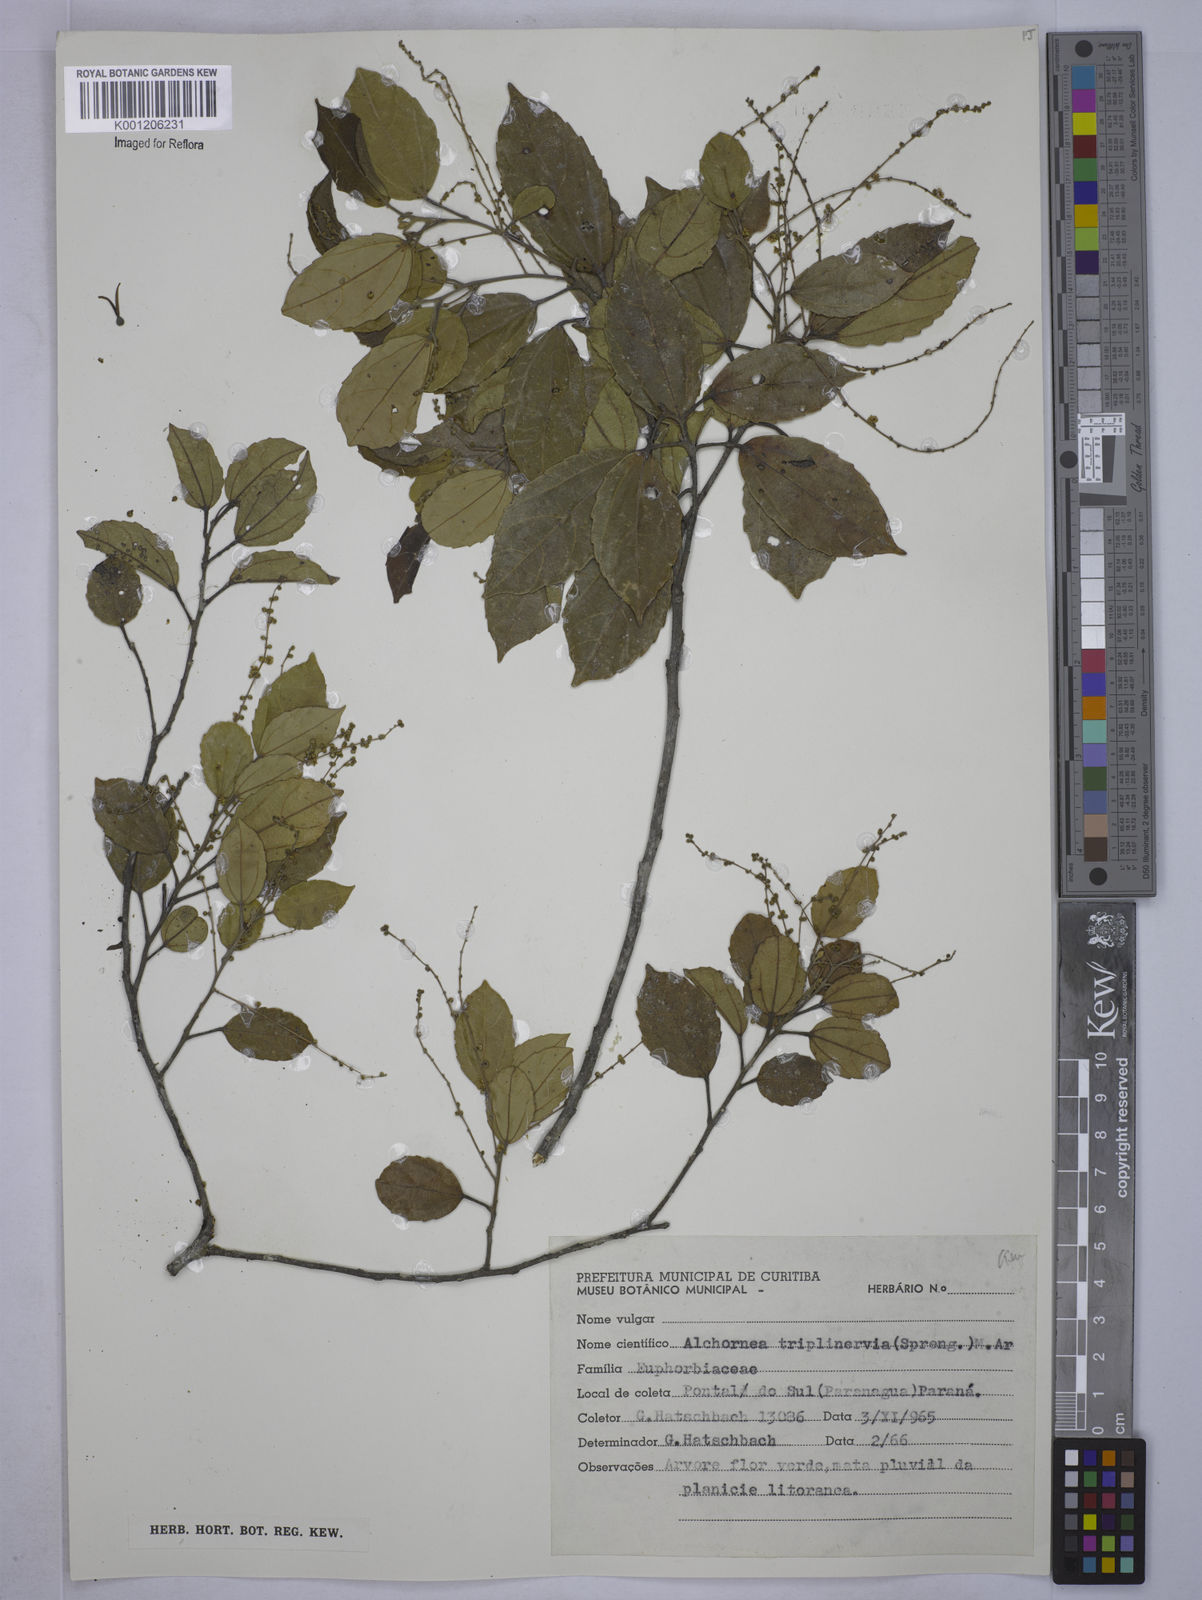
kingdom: Plantae
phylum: Tracheophyta
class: Magnoliopsida
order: Malpighiales
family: Euphorbiaceae
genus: Alchornea
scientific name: Alchornea
